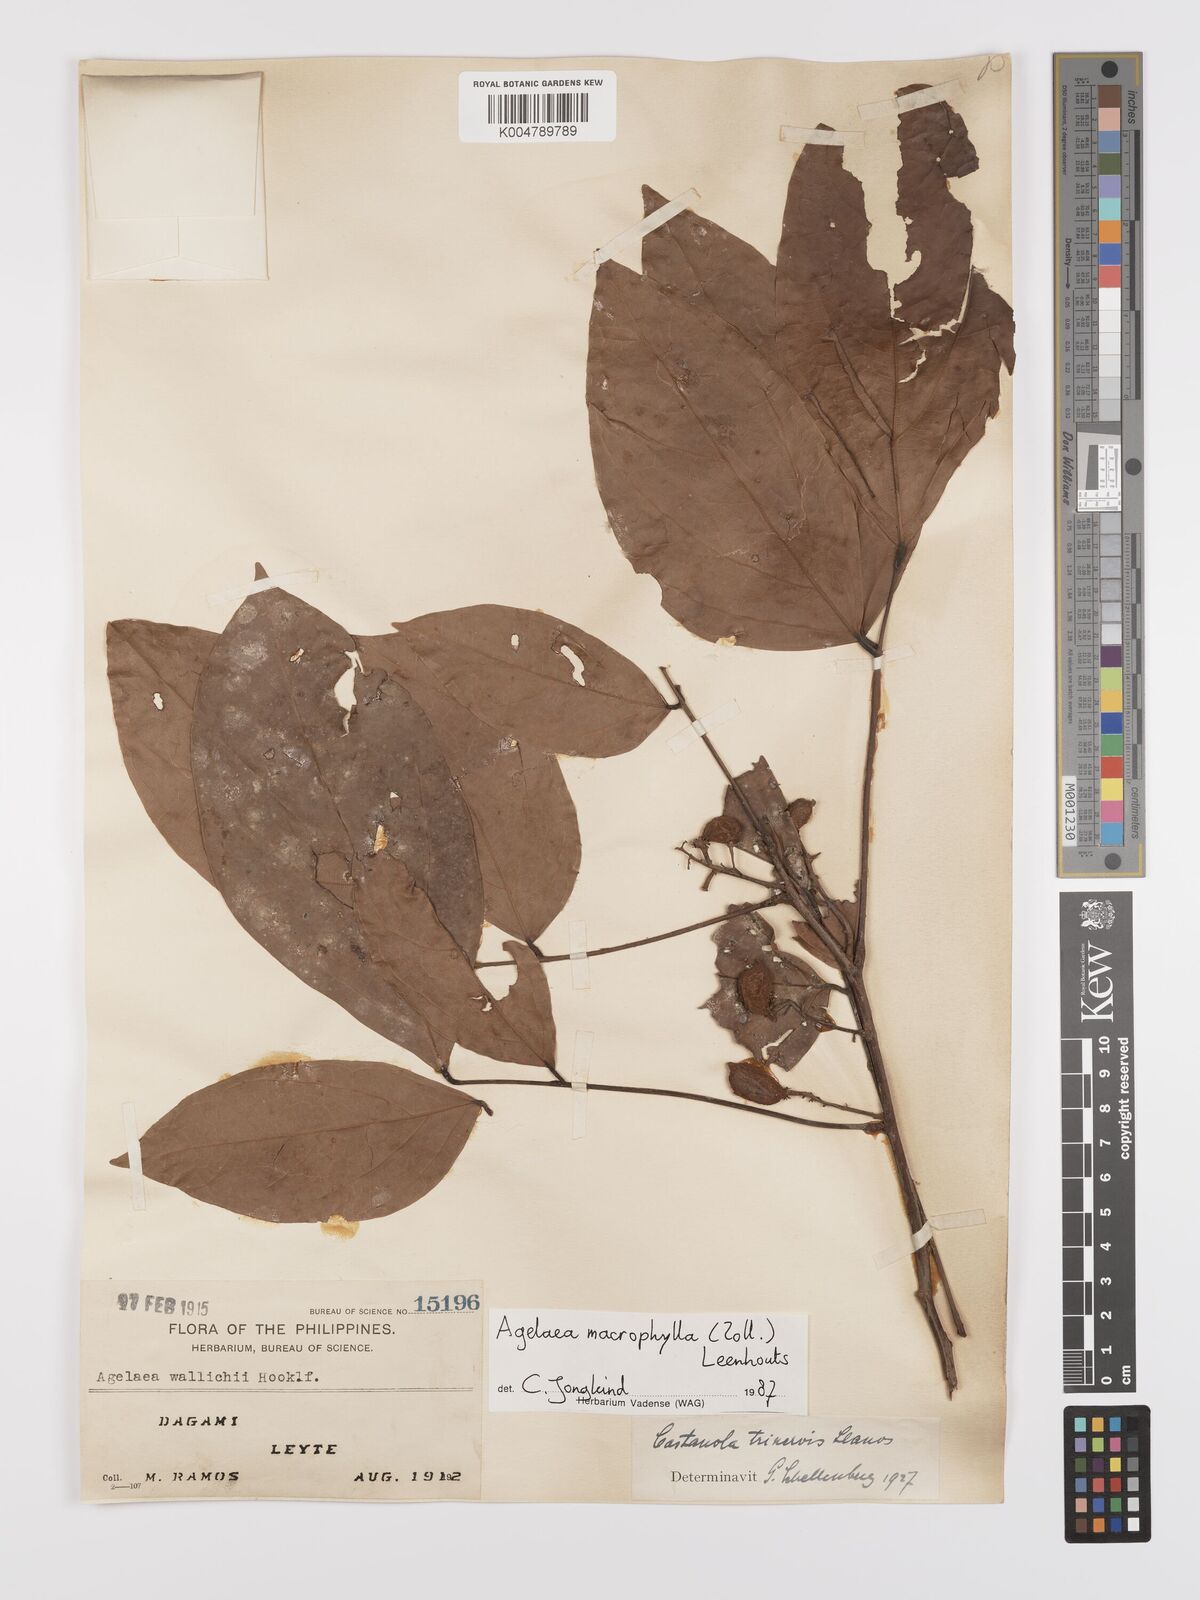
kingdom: Plantae
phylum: Tracheophyta
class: Magnoliopsida
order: Oxalidales
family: Connaraceae
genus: Agelaea
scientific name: Agelaea trinervis
